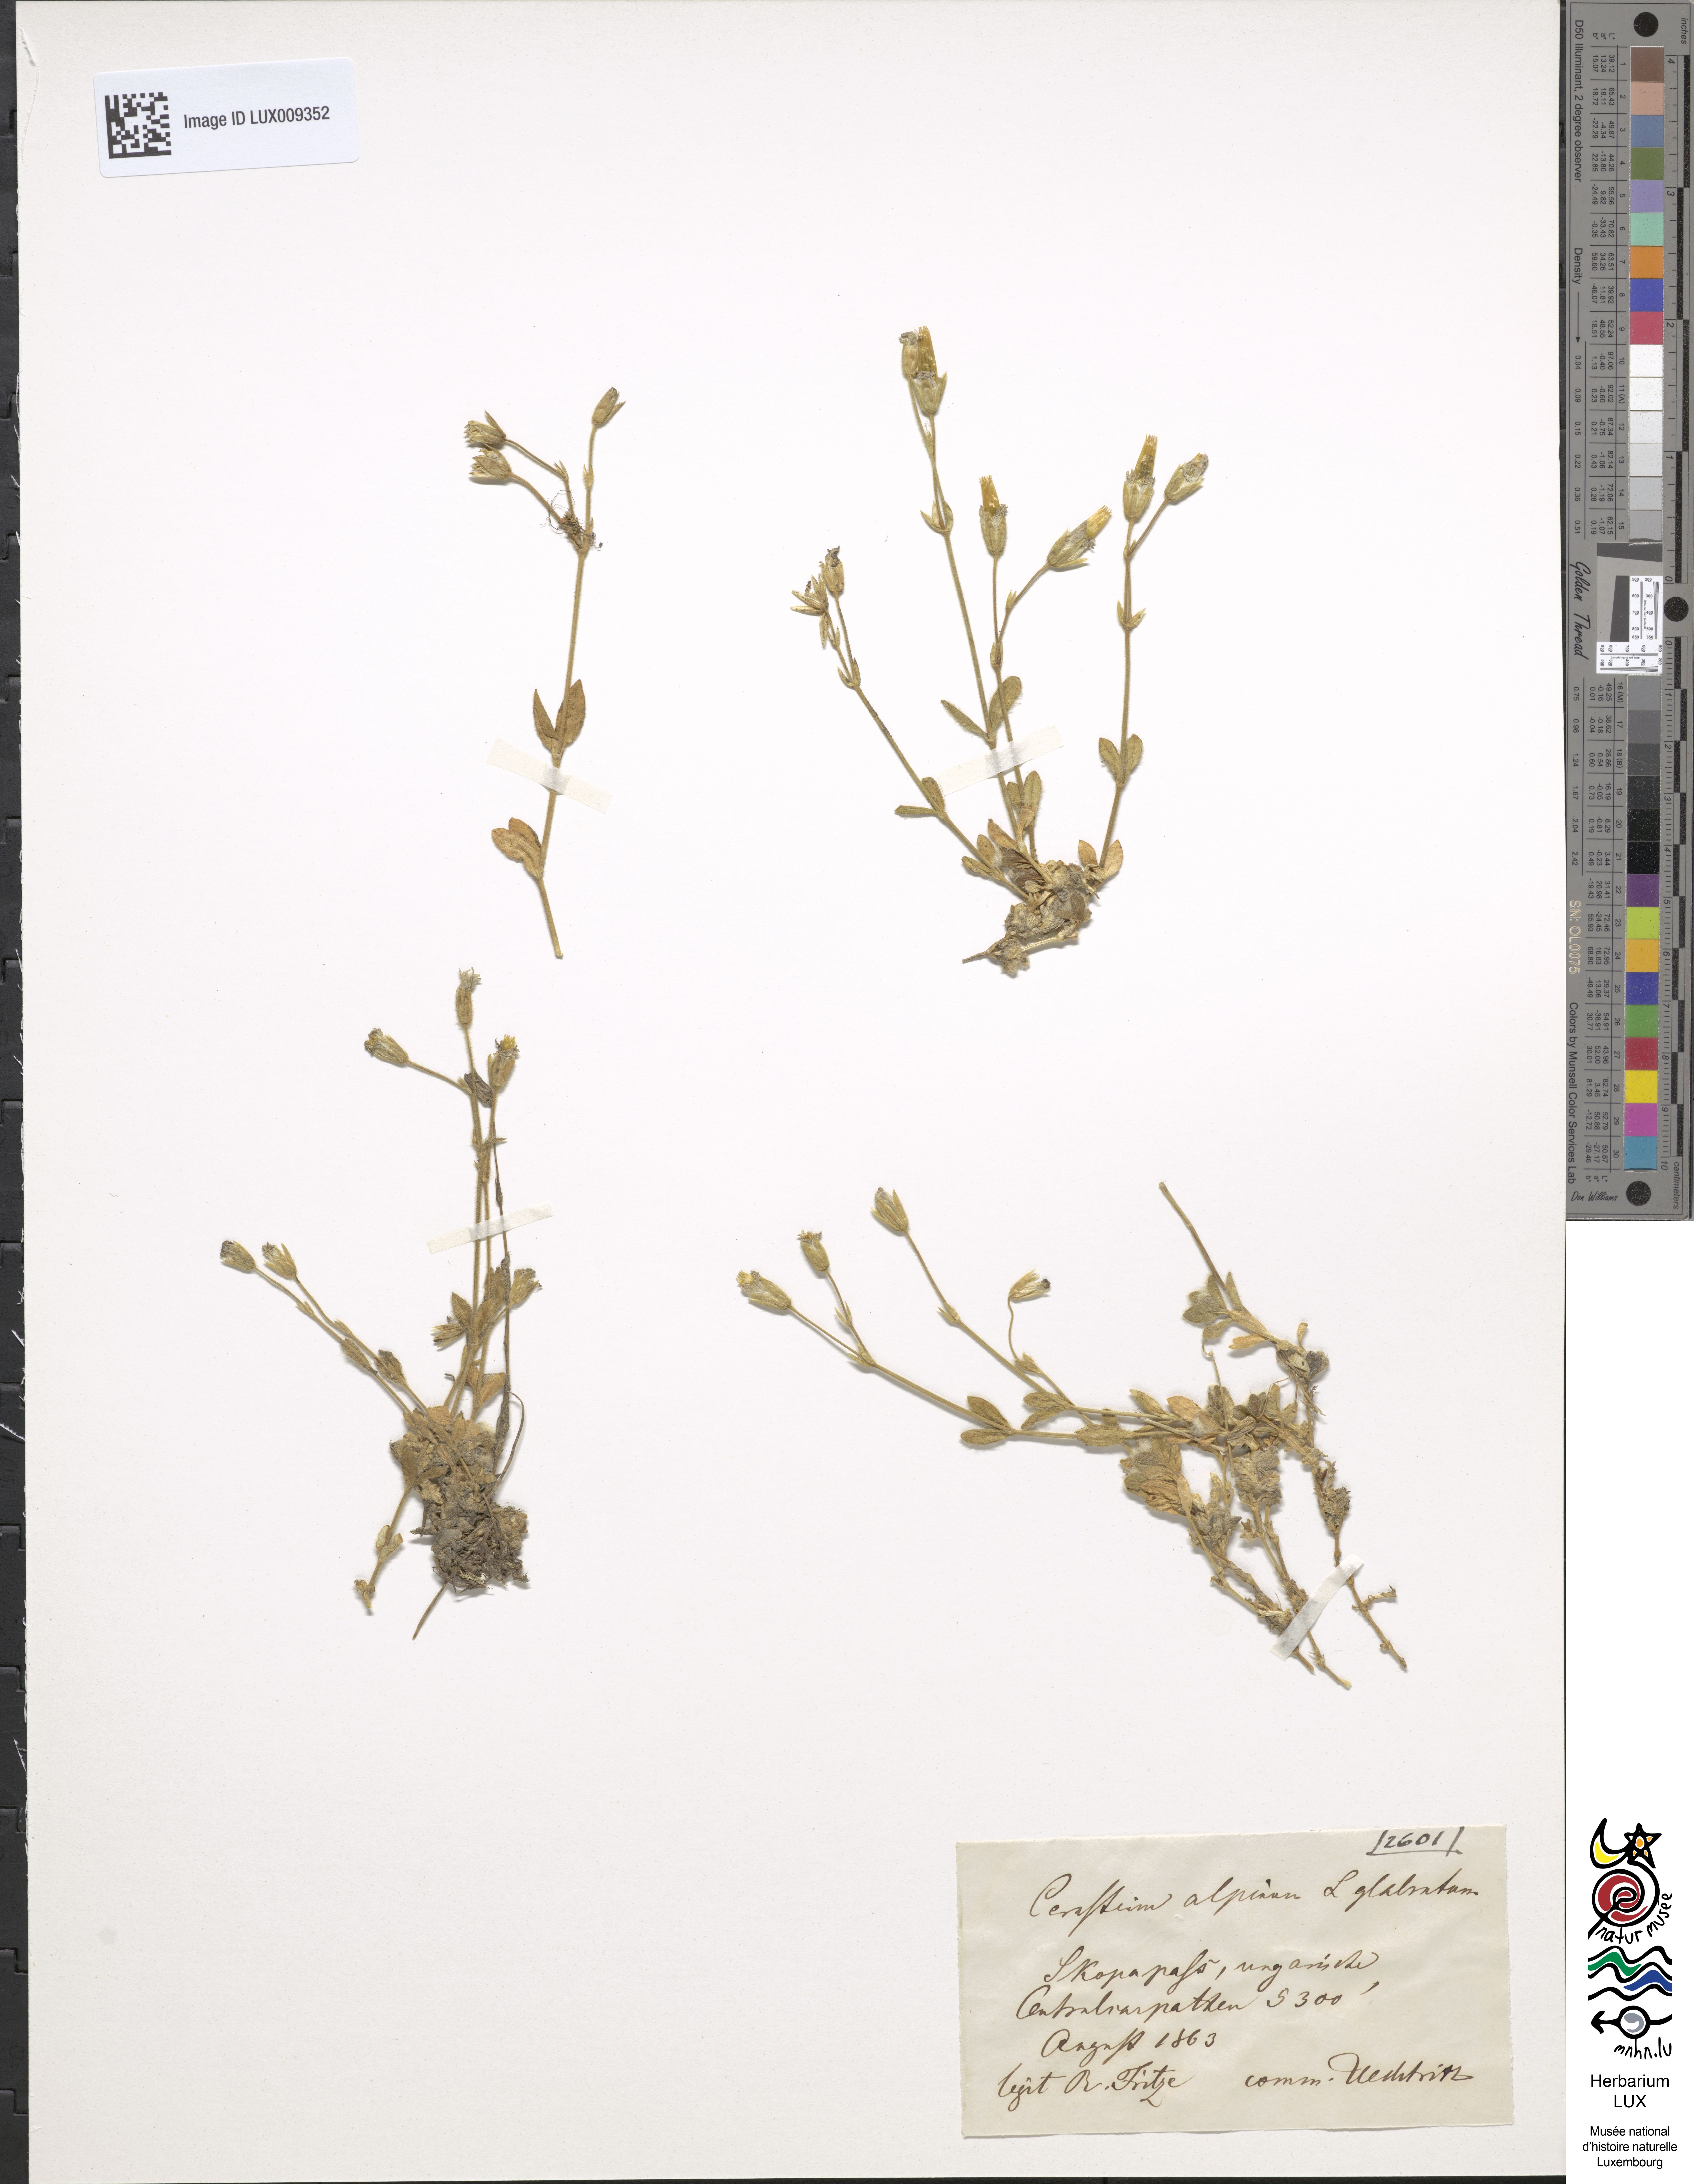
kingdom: Plantae
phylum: Tracheophyta
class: Magnoliopsida
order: Caryophyllales
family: Caryophyllaceae
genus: Cerastium
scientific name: Cerastium alpinum
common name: Alpine mouse-ear
